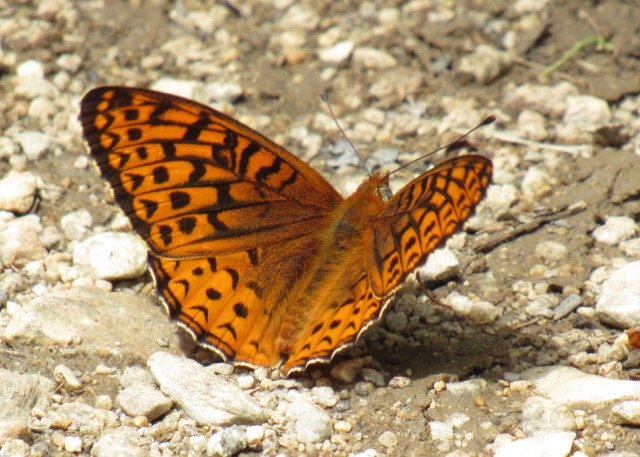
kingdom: Animalia
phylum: Arthropoda
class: Insecta
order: Lepidoptera
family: Nymphalidae
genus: Speyeria
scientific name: Speyeria atlantis
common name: Atlantis Fritillary
